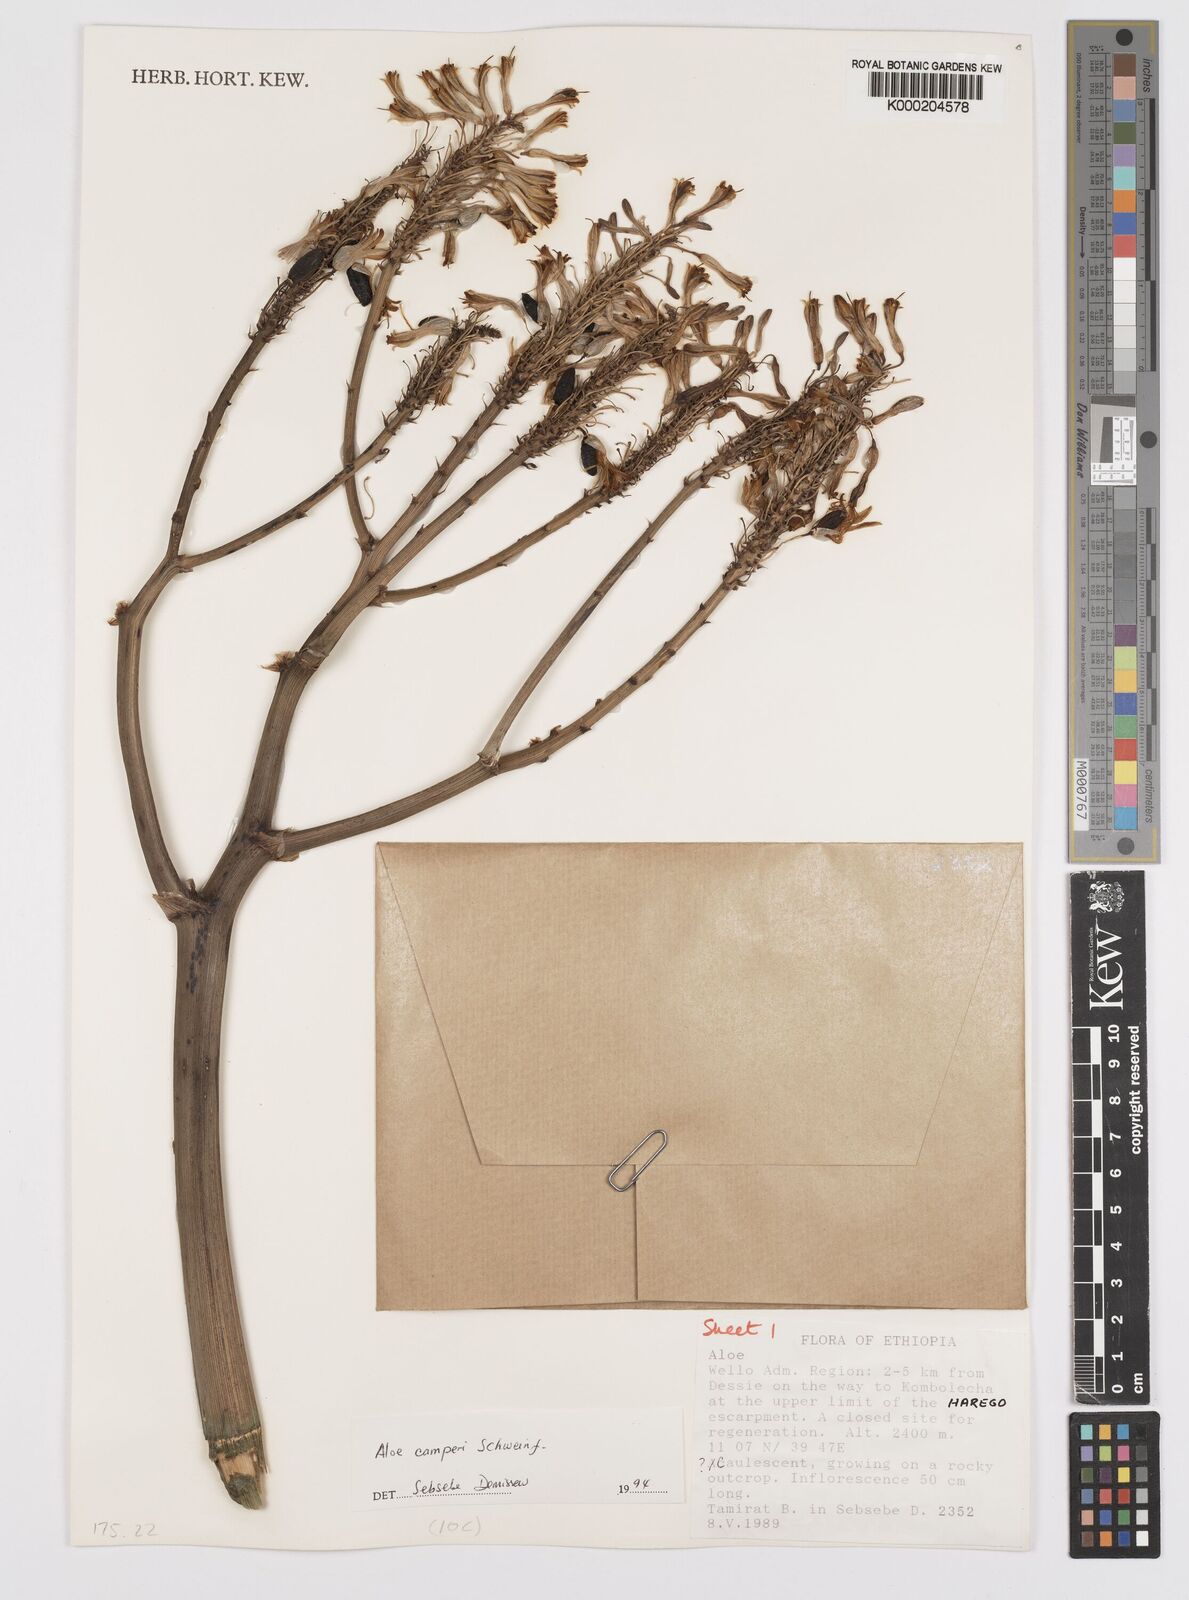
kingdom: Plantae
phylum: Tracheophyta
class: Liliopsida
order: Asparagales
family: Asphodelaceae
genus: Aloe
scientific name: Aloe camperi
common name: Camper's aloe
